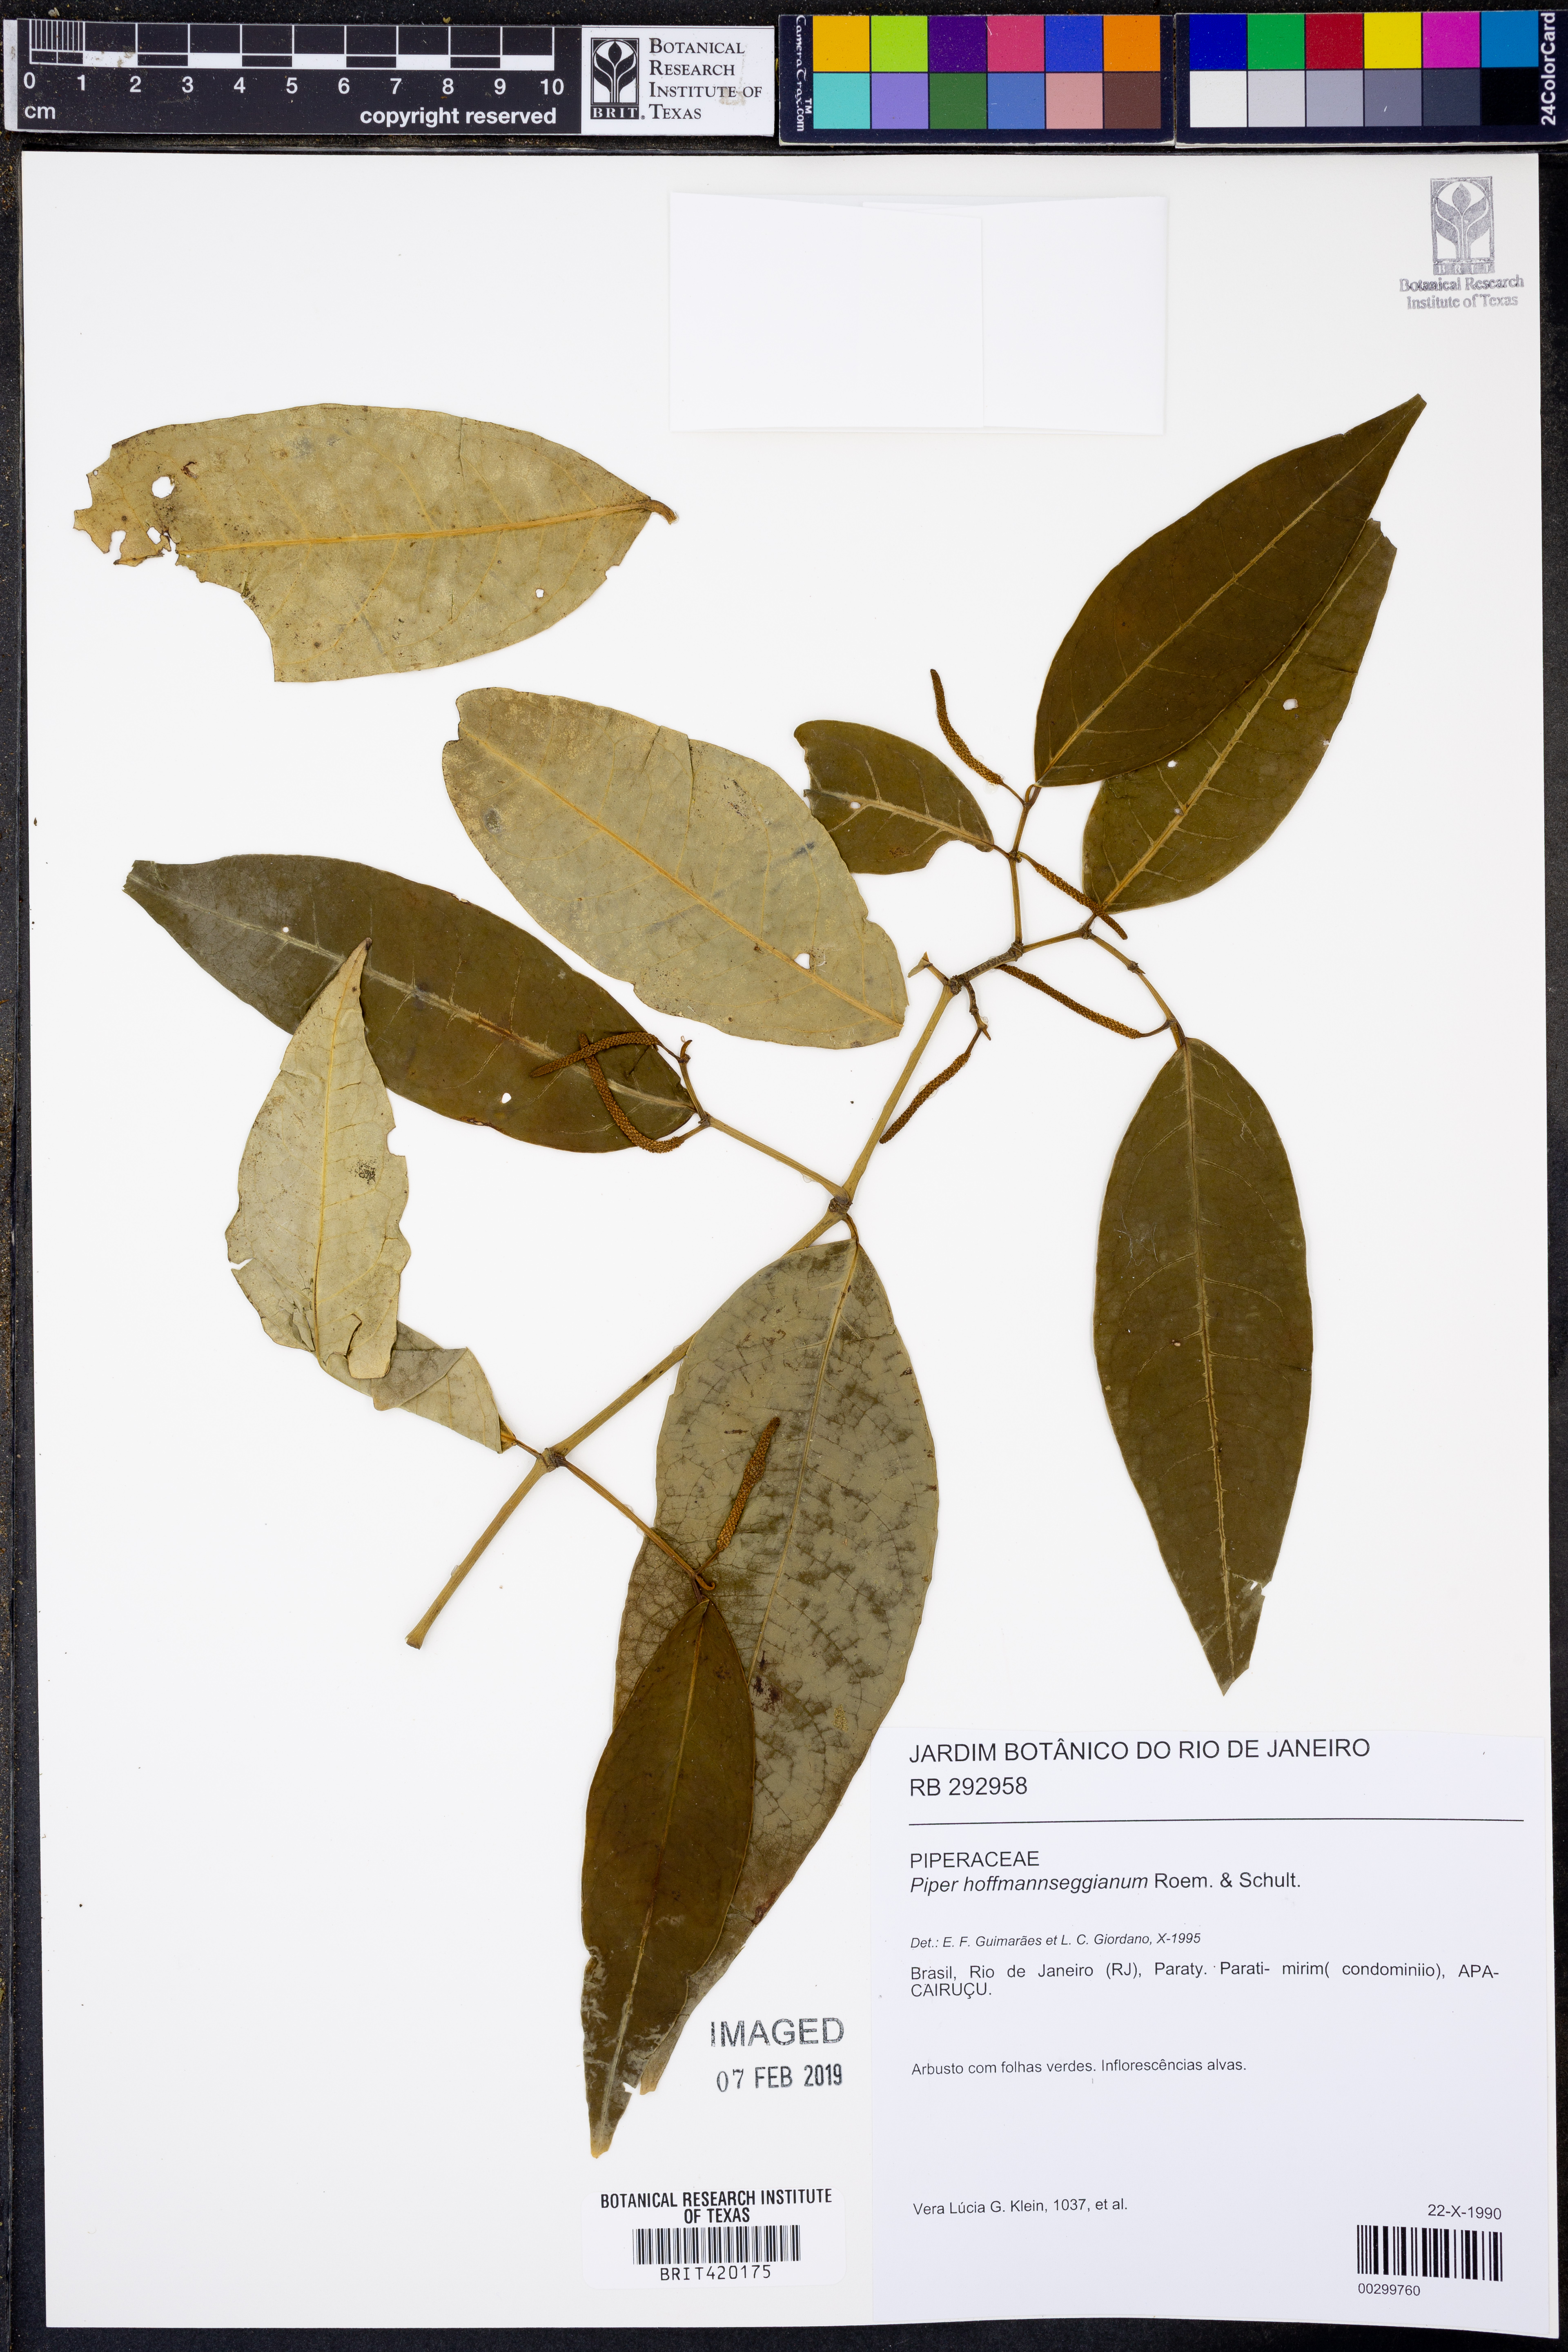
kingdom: Plantae
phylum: Tracheophyta
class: Magnoliopsida
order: Piperales
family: Piperaceae
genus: Piper
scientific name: Piper hoffmannseggianum
